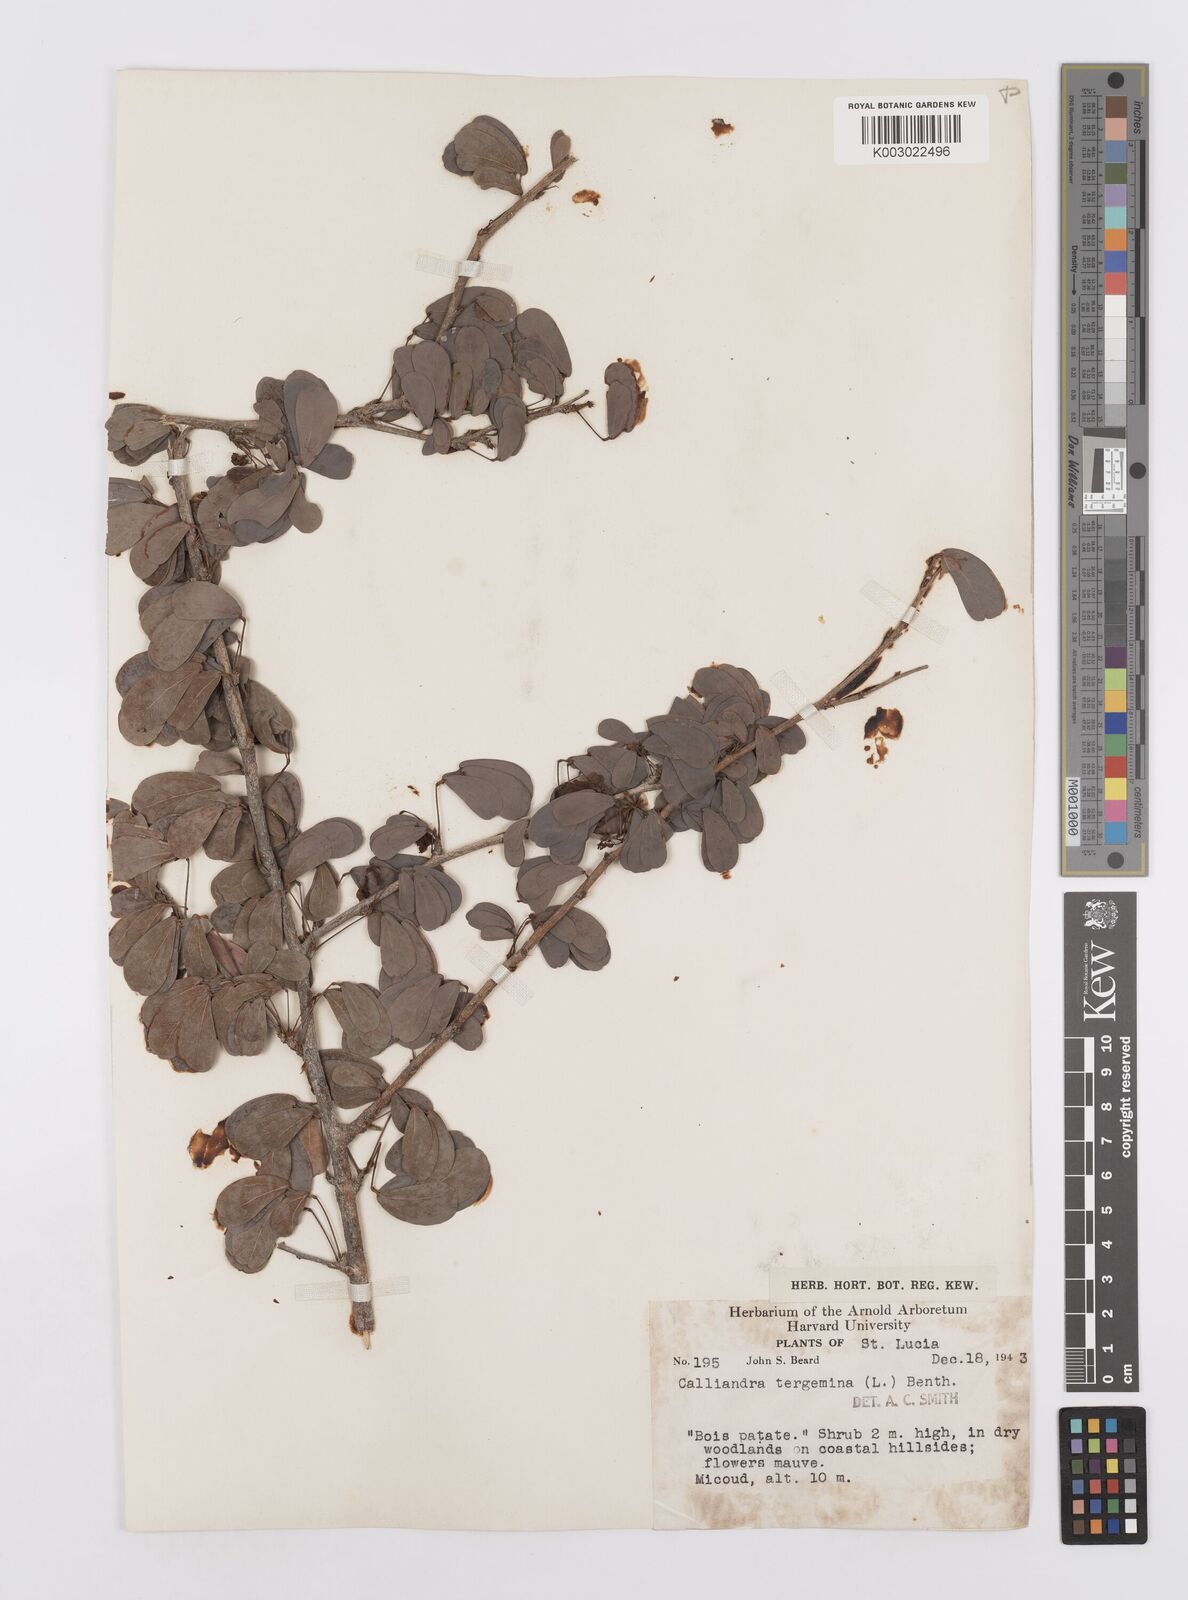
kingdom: Plantae
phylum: Tracheophyta
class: Magnoliopsida
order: Fabales
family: Fabaceae
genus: Calliandra
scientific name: Calliandra tergemina
